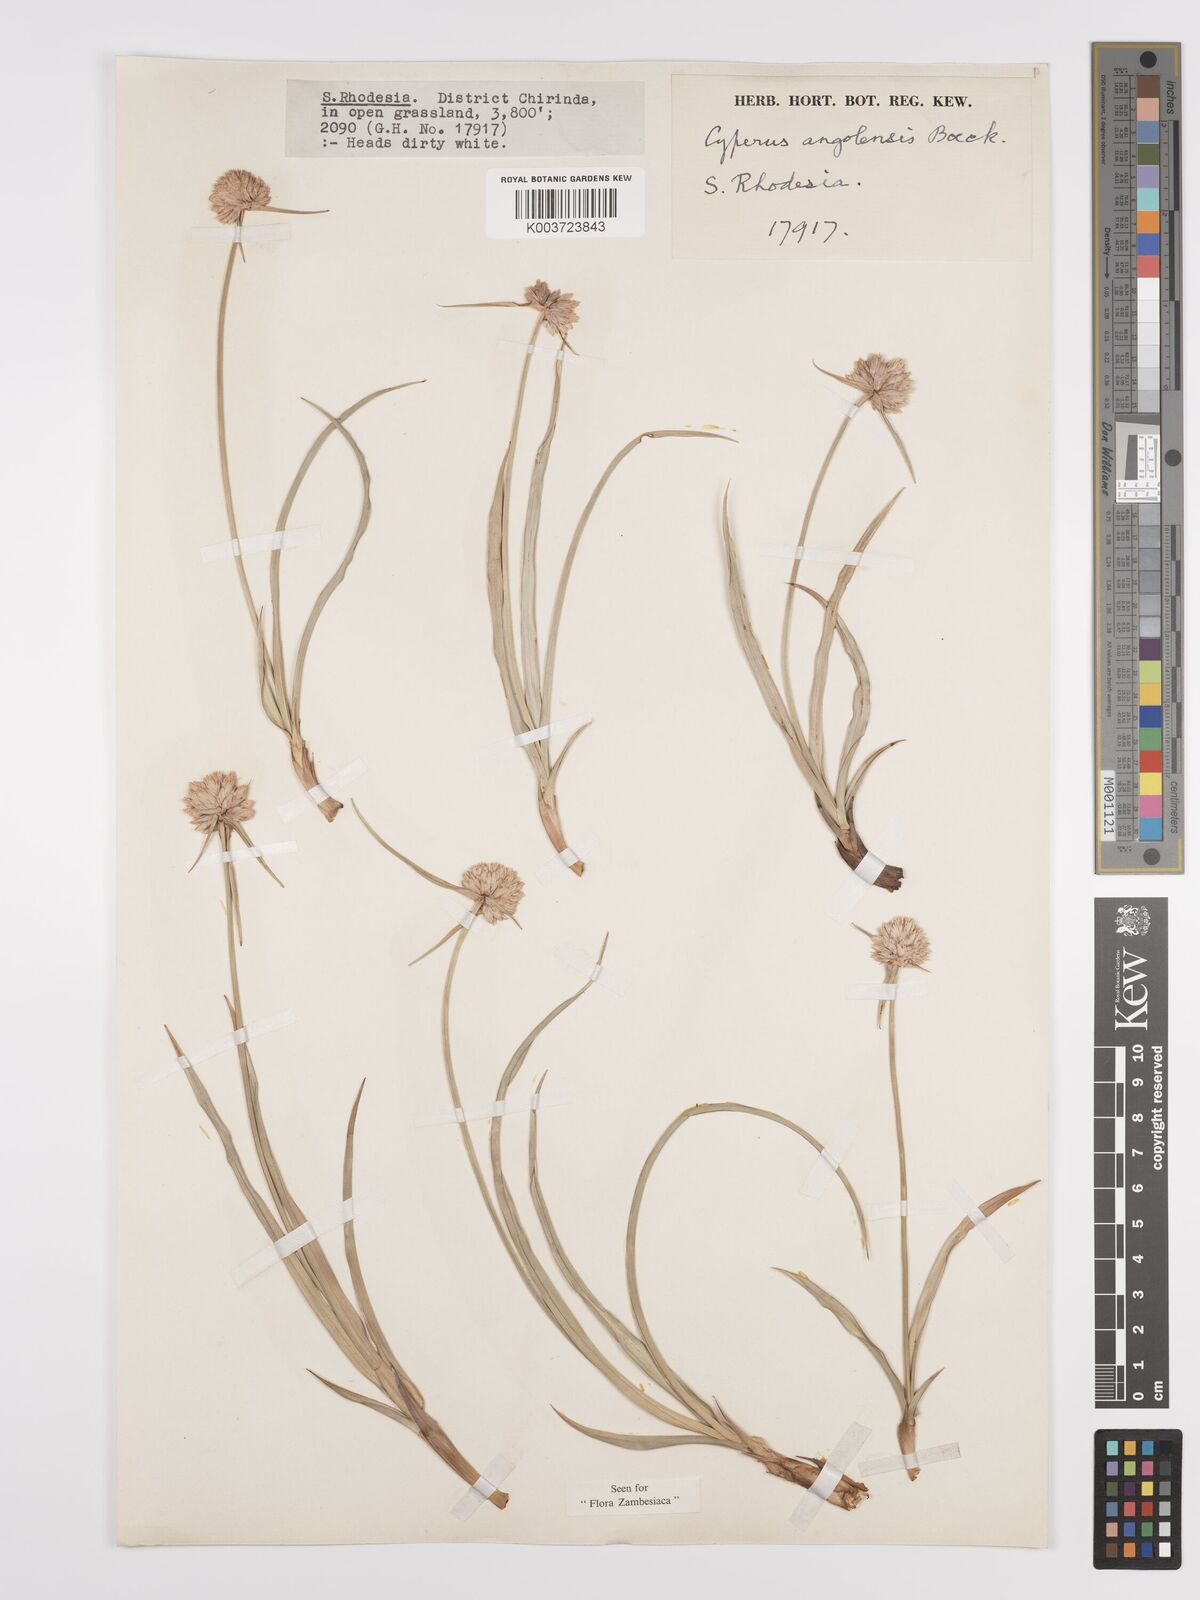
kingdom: Plantae
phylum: Tracheophyta
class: Liliopsida
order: Poales
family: Cyperaceae
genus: Cyperus
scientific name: Cyperus angolensis
